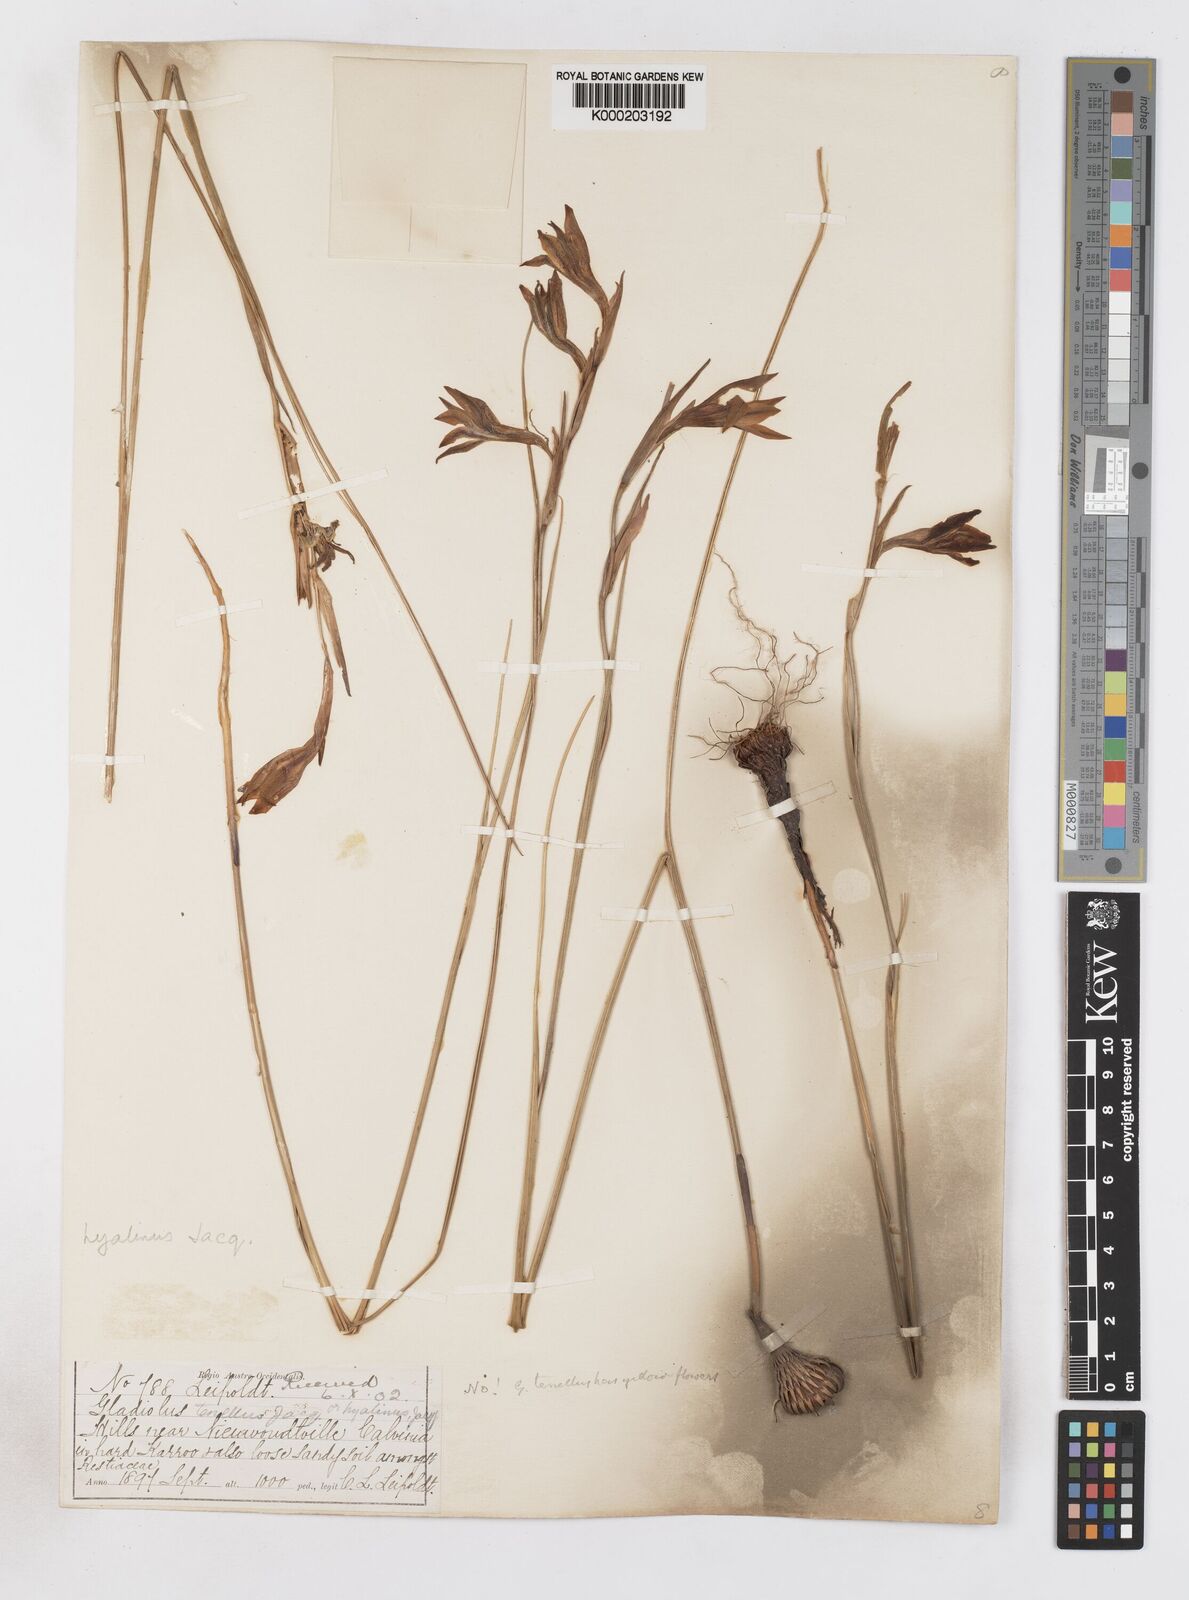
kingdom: Plantae
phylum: Tracheophyta
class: Liliopsida
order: Asparagales
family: Iridaceae
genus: Gladiolus
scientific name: Gladiolus hyalinus
